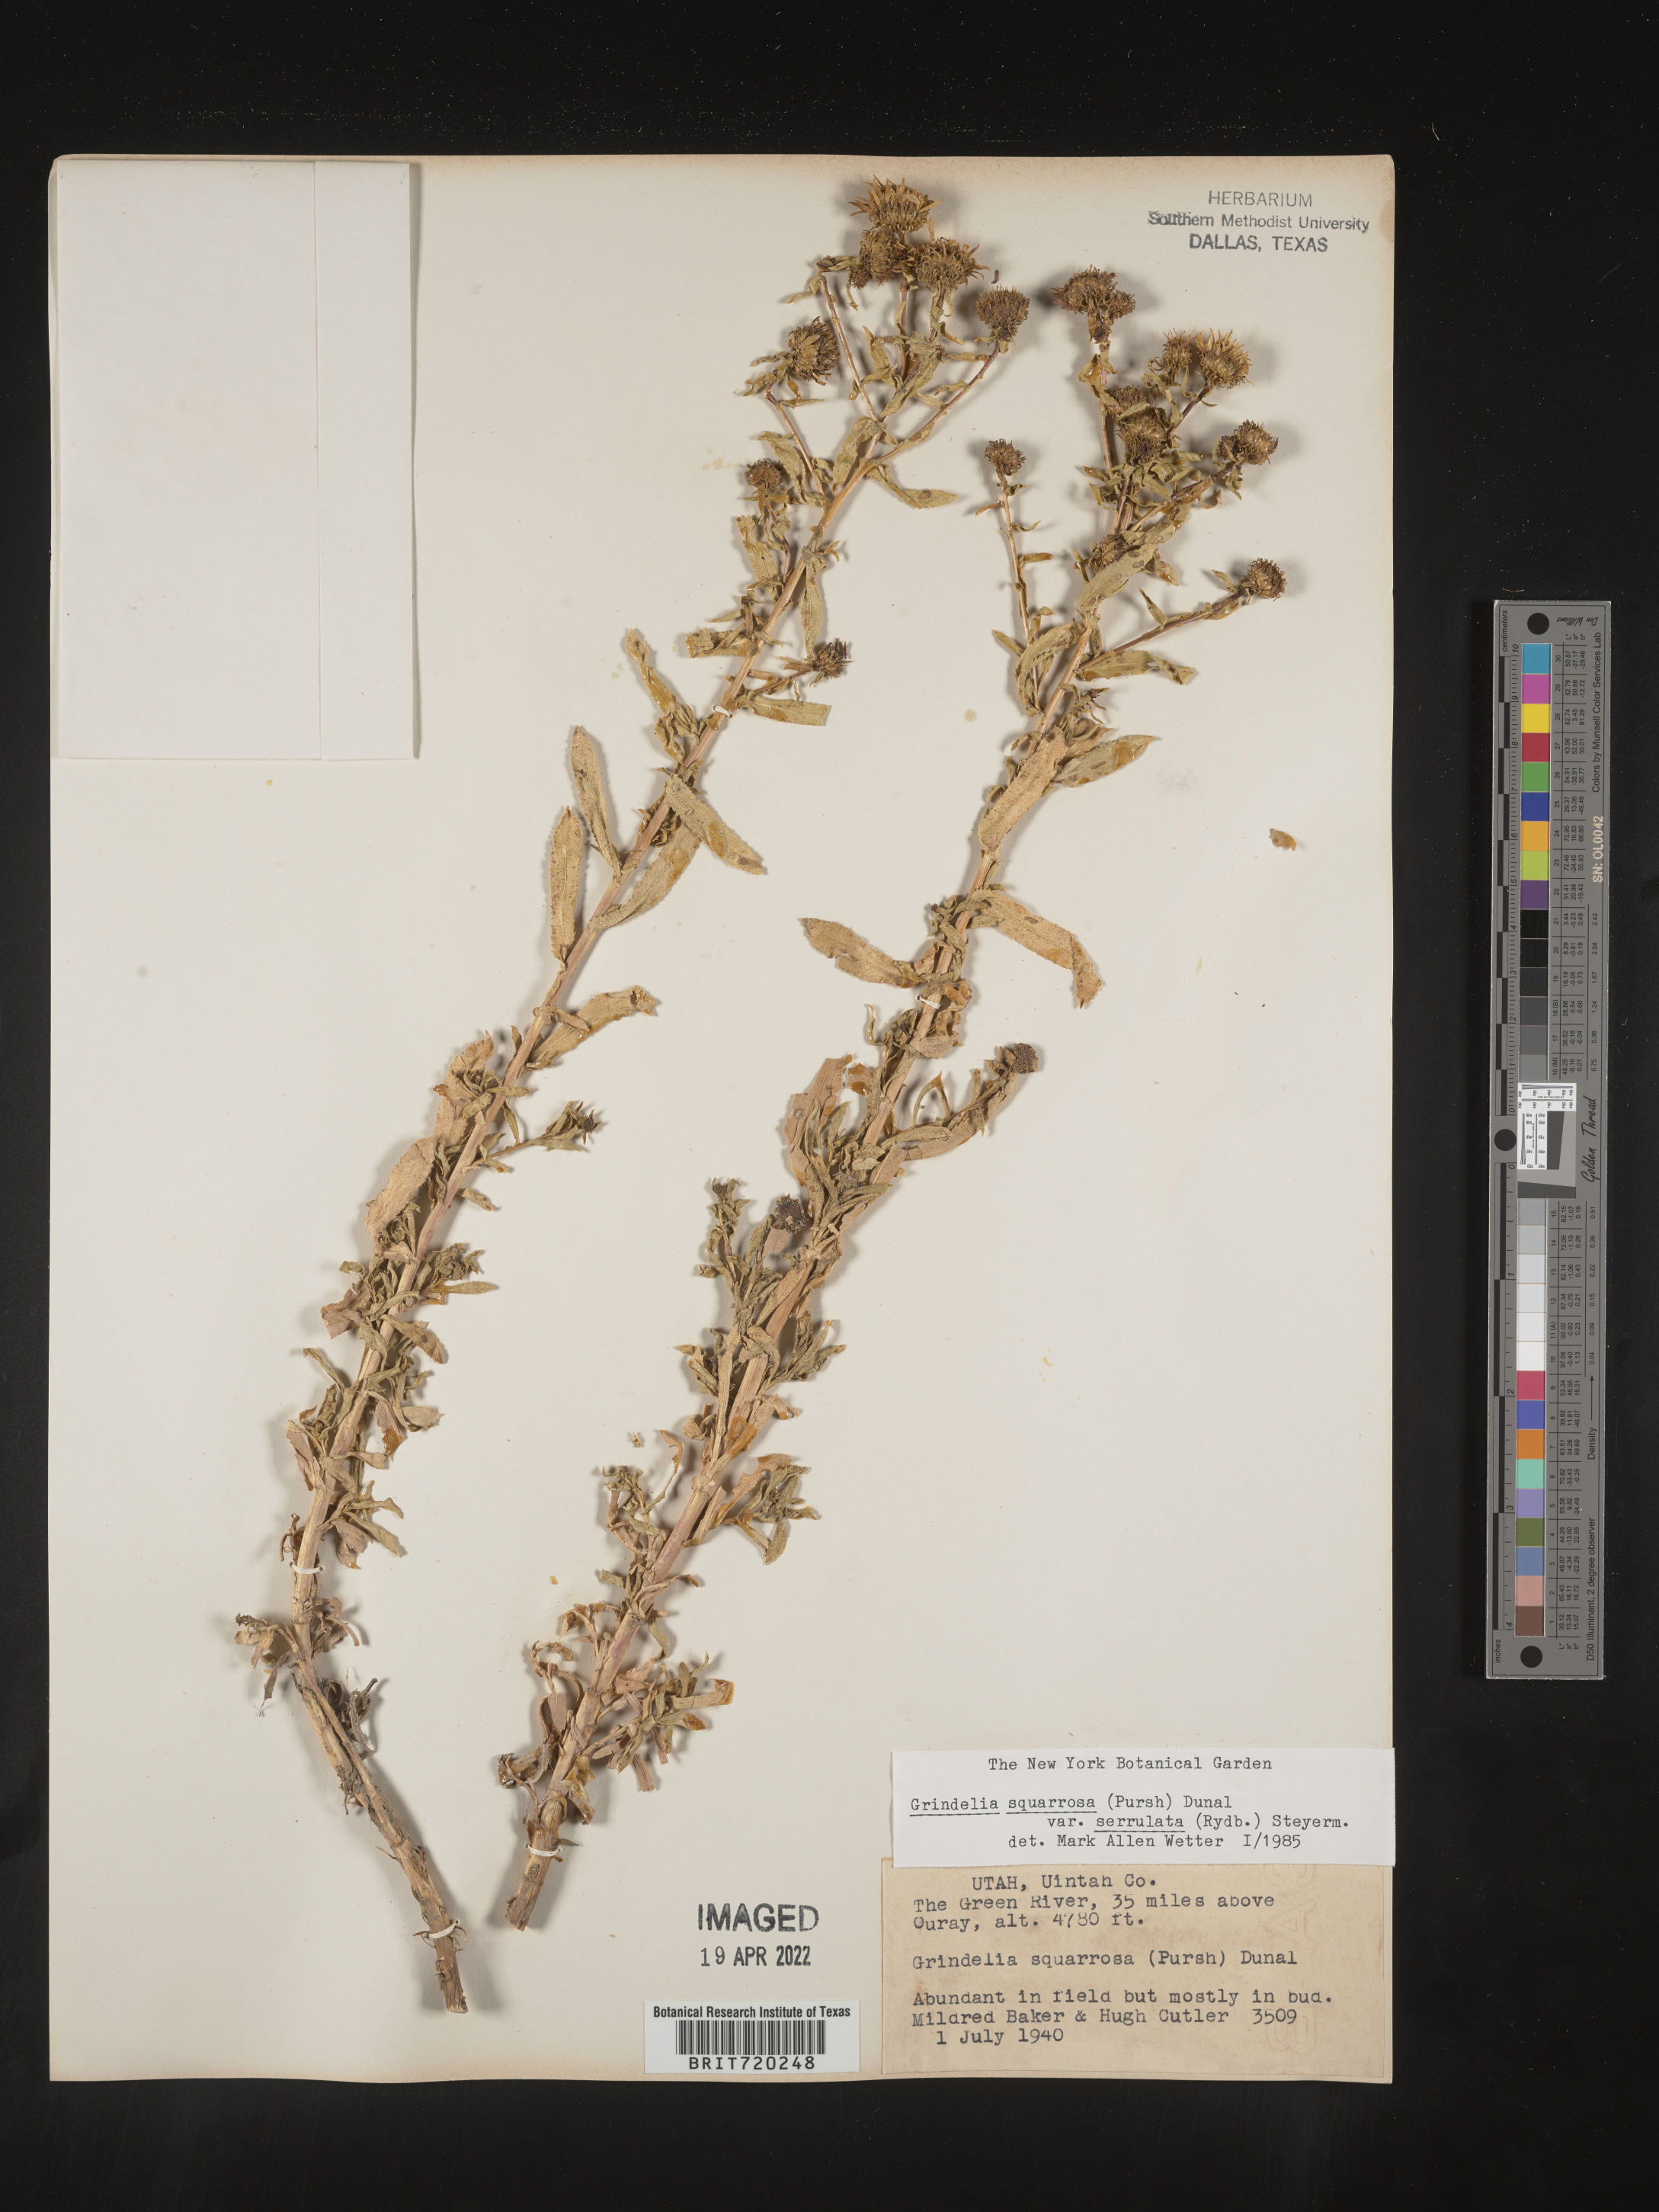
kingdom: Plantae
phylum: Tracheophyta
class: Magnoliopsida
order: Asterales
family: Asteraceae
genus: Grindelia
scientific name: Grindelia squarrosa
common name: Curly-cup gumweed
